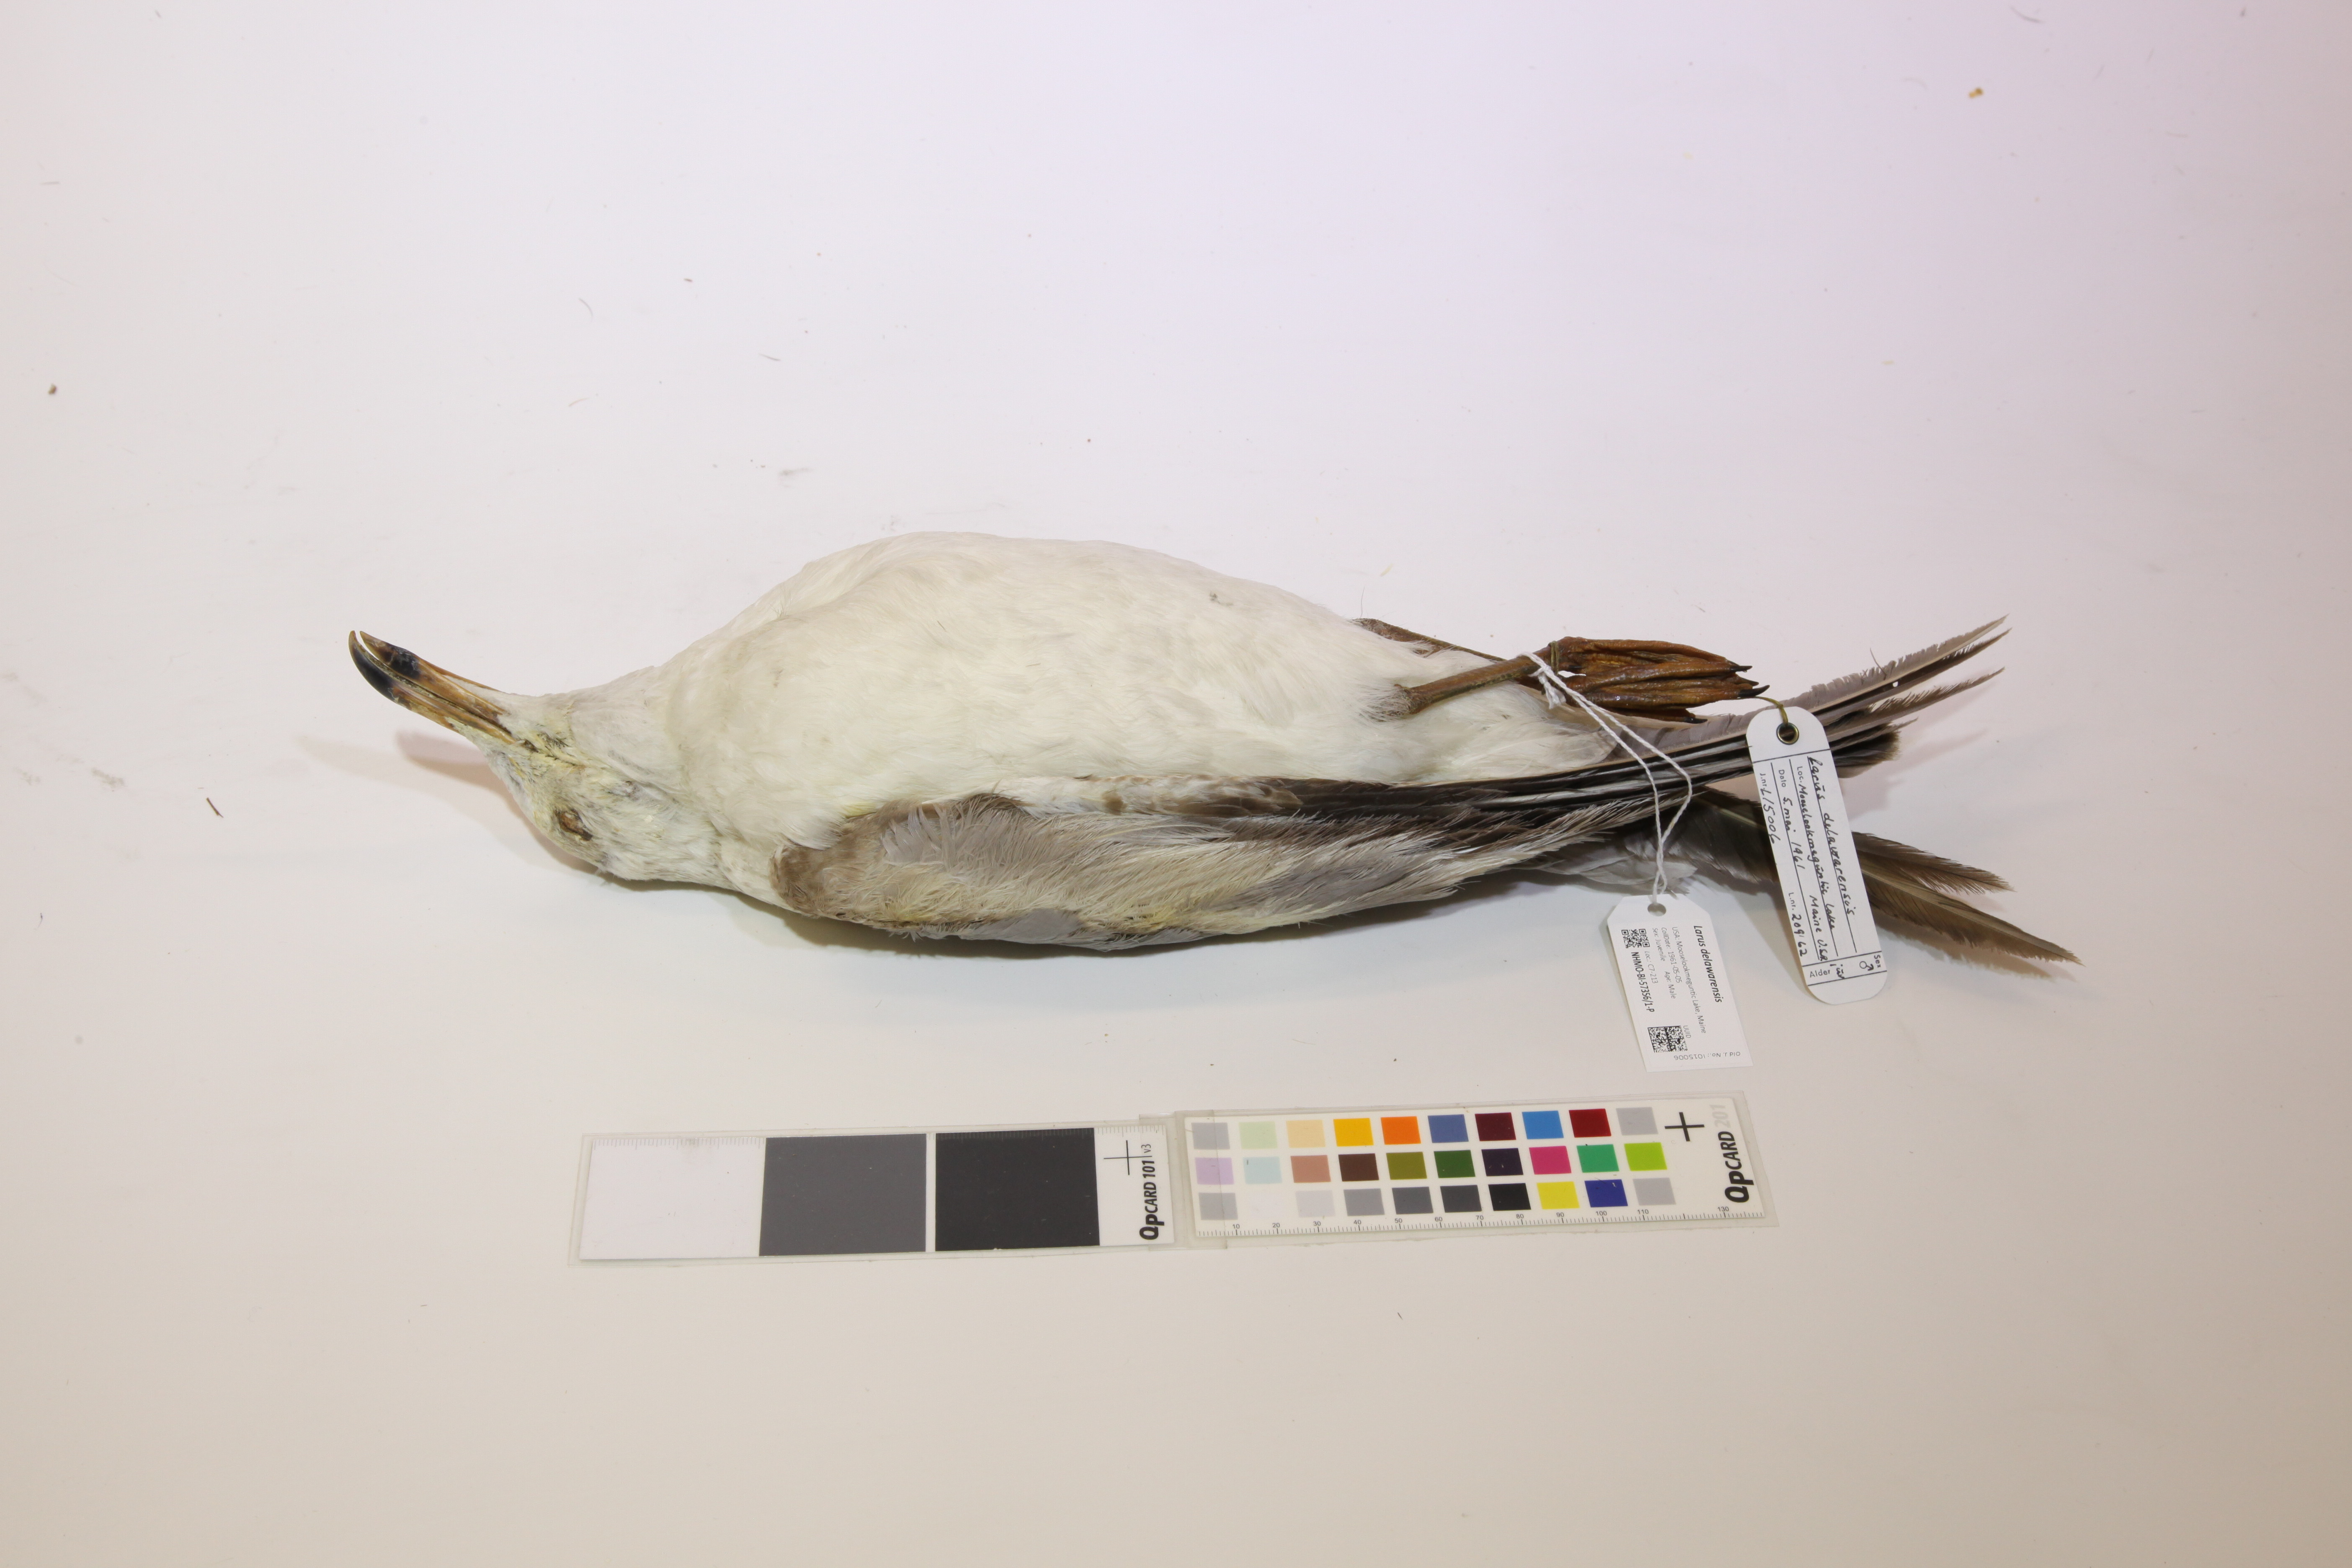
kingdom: Animalia
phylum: Chordata
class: Aves
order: Charadriiformes
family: Laridae
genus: Larus
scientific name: Larus delawarensis
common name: Ring-billed gull
